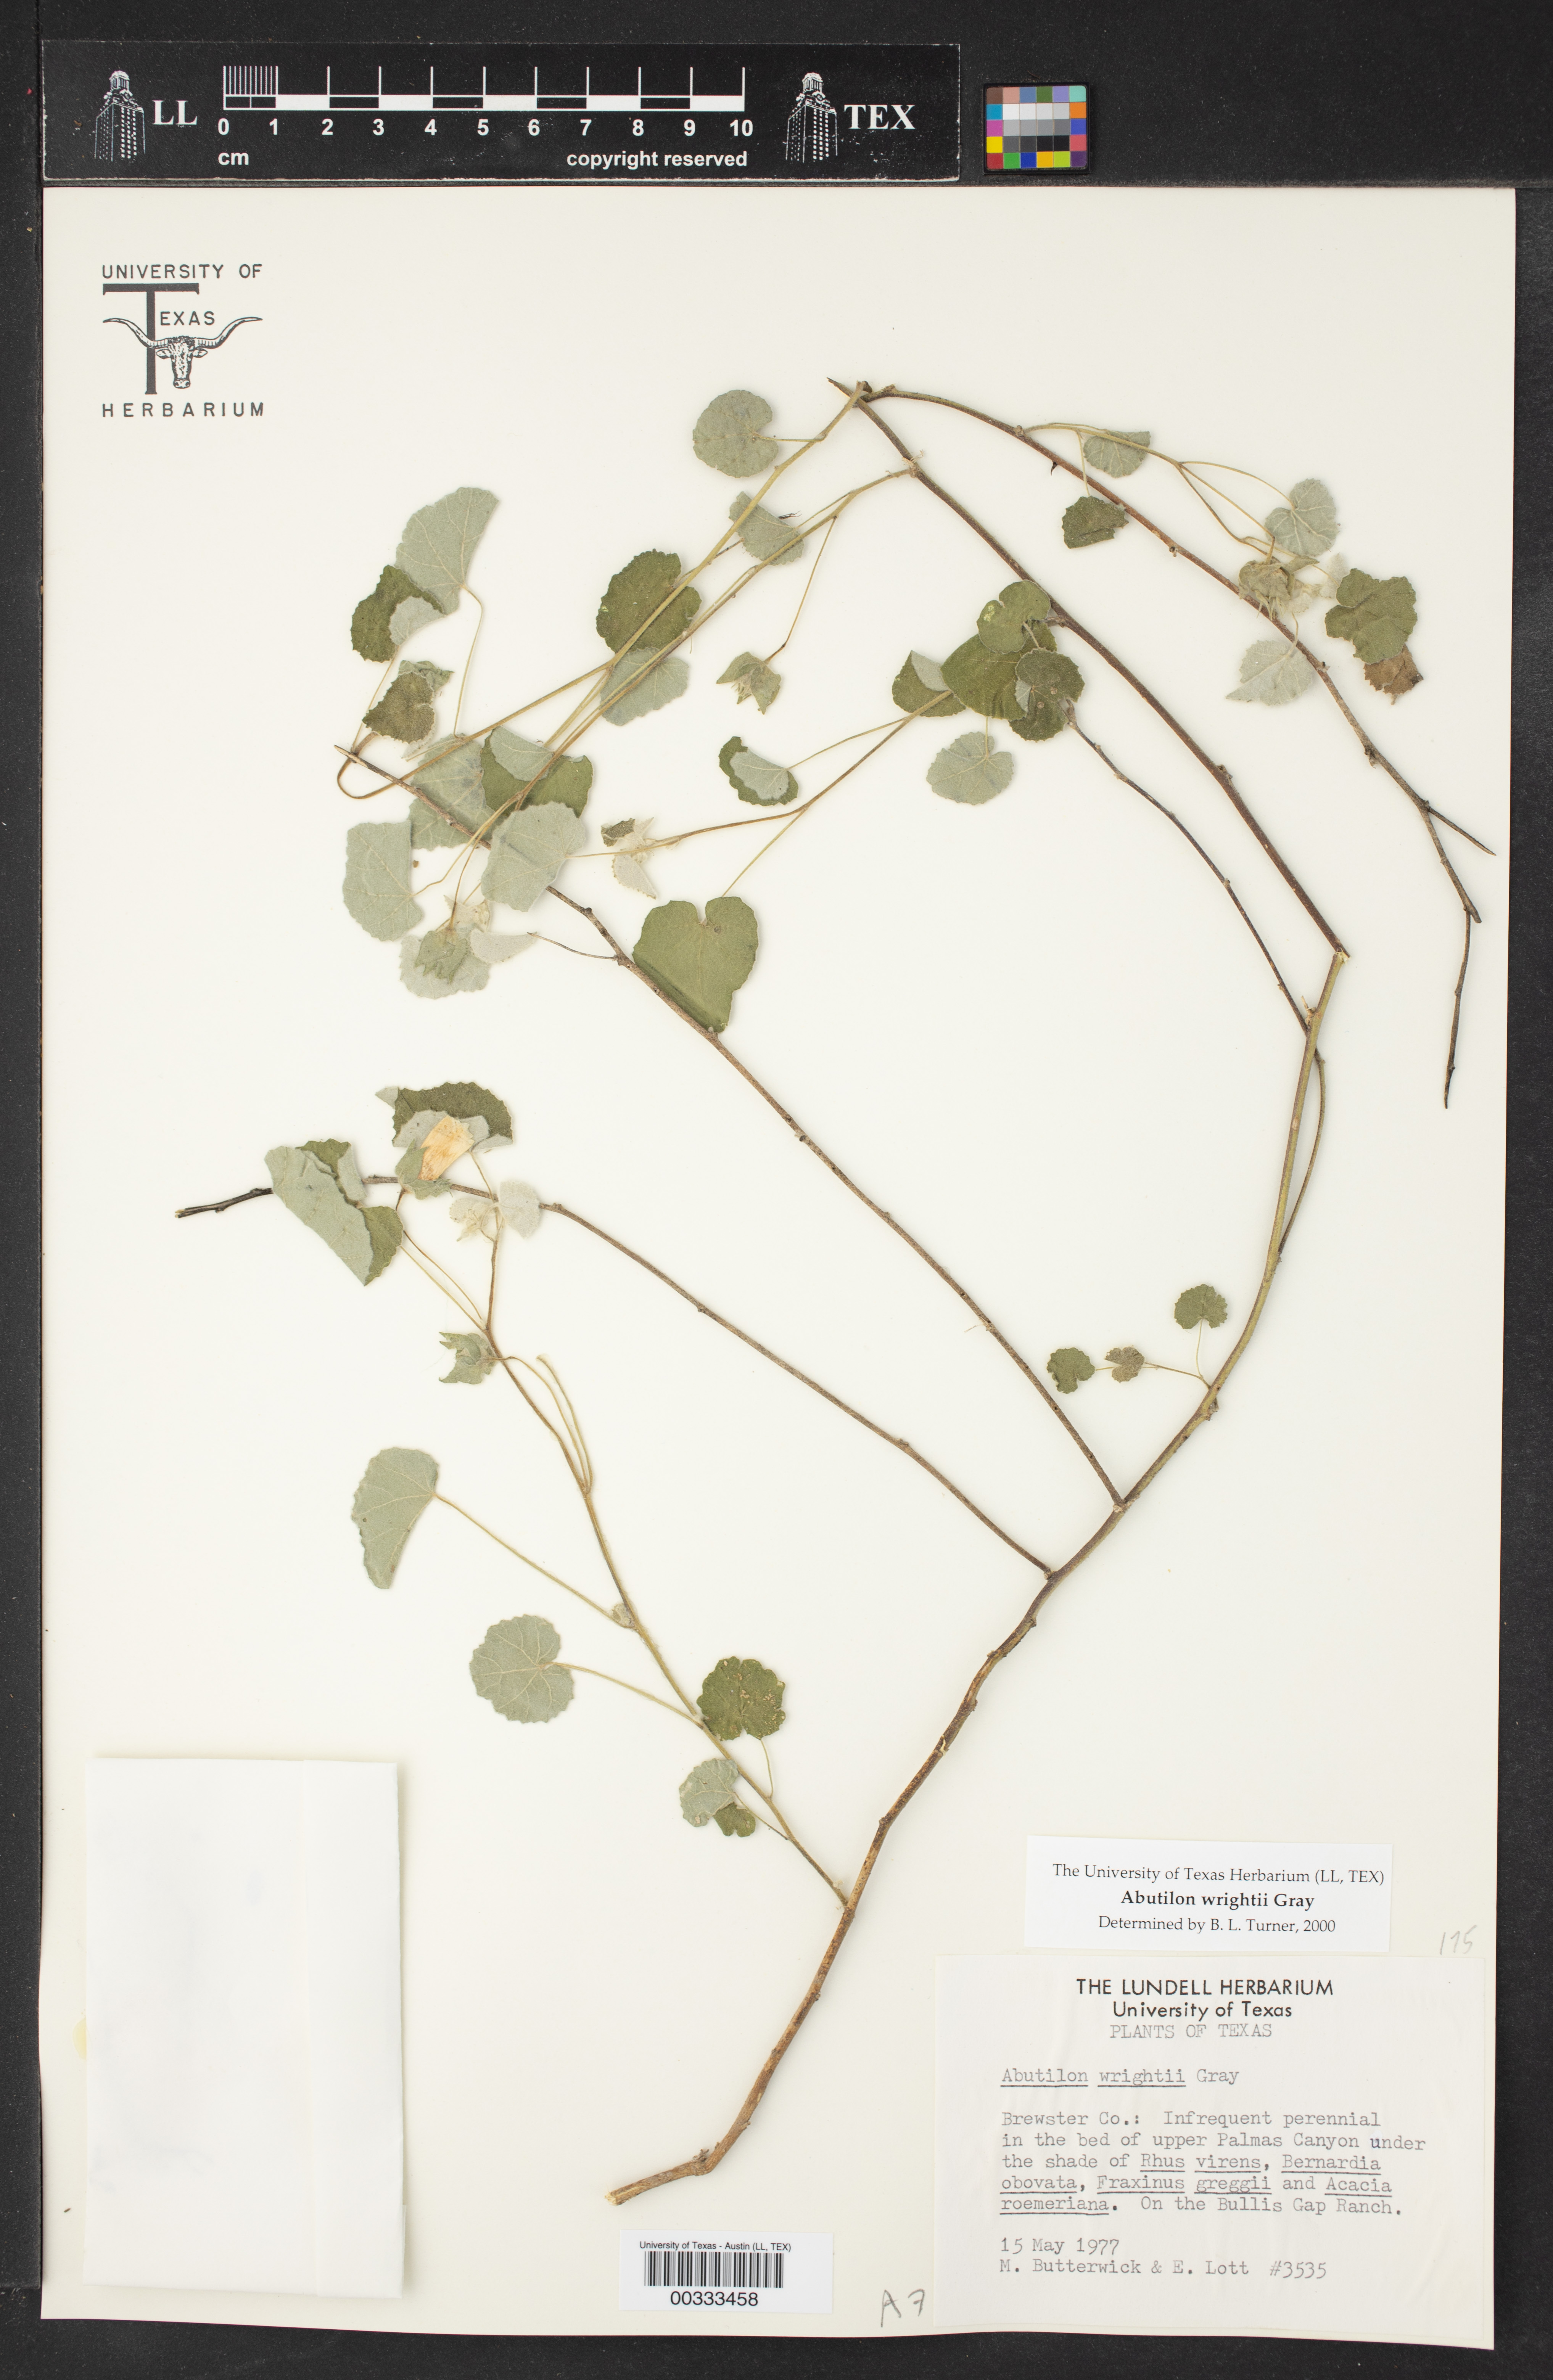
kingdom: Plantae
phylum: Tracheophyta
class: Magnoliopsida
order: Malvales
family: Malvaceae
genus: Abutilon
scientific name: Abutilon wrightii
